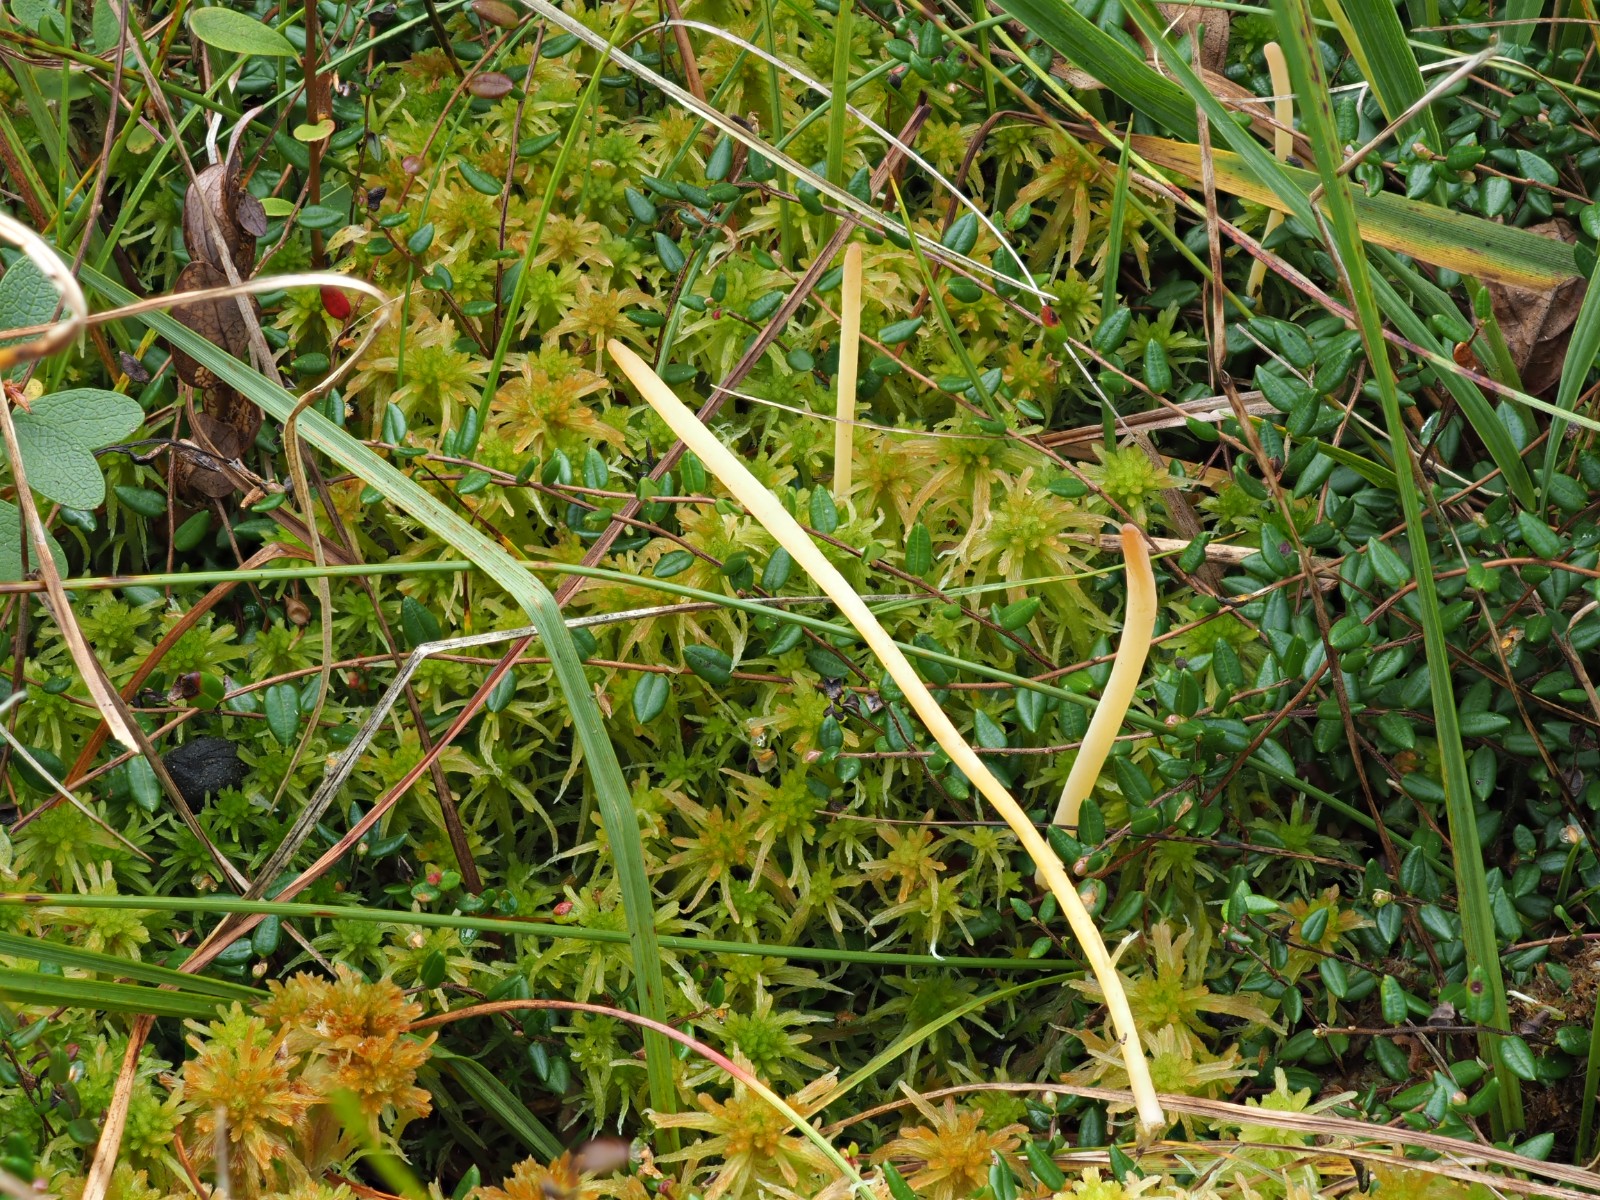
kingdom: Fungi
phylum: Basidiomycota
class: Agaricomycetes
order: Agaricales
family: Clavariaceae
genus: Clavaria
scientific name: Clavaria sphagnicola
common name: tørvemos-køllesvamp
